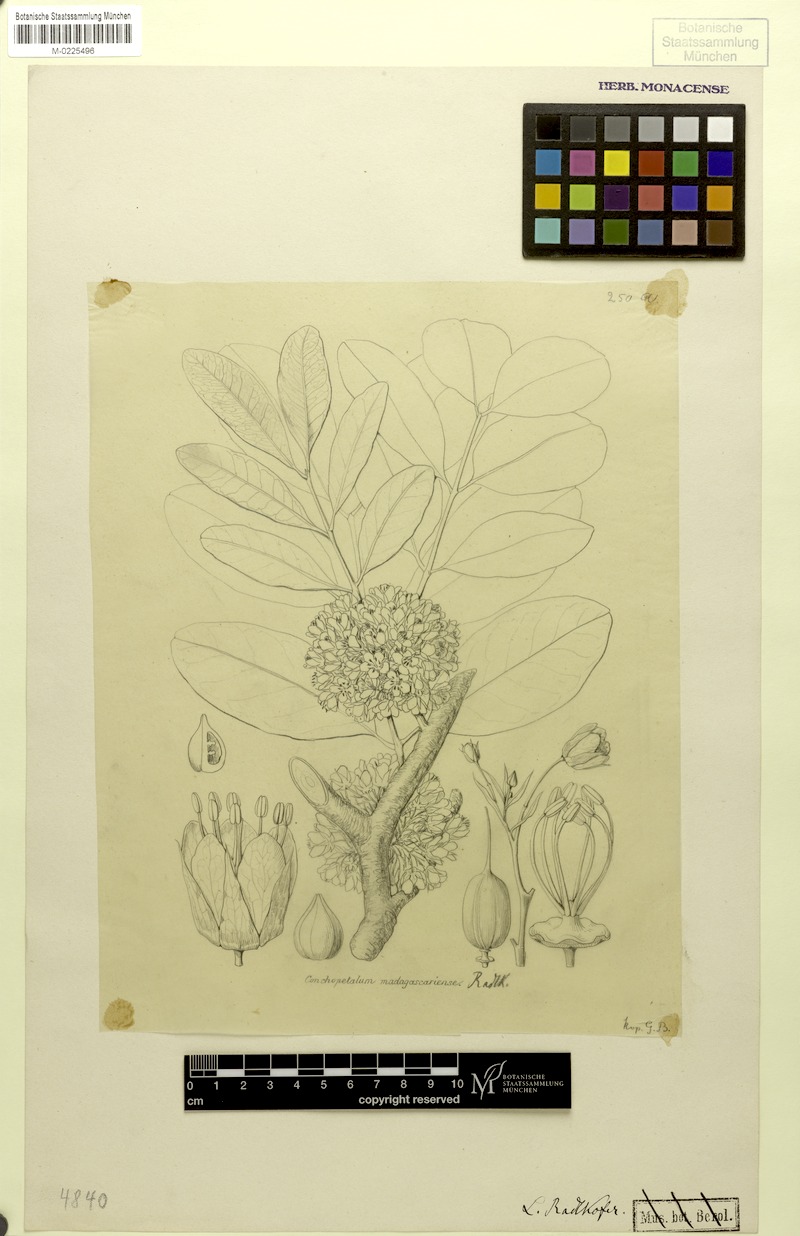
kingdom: Plantae
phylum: Tracheophyta
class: Magnoliopsida
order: Sapindales
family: Sapindaceae
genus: Conchopetalum
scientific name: Conchopetalum madagascariense
